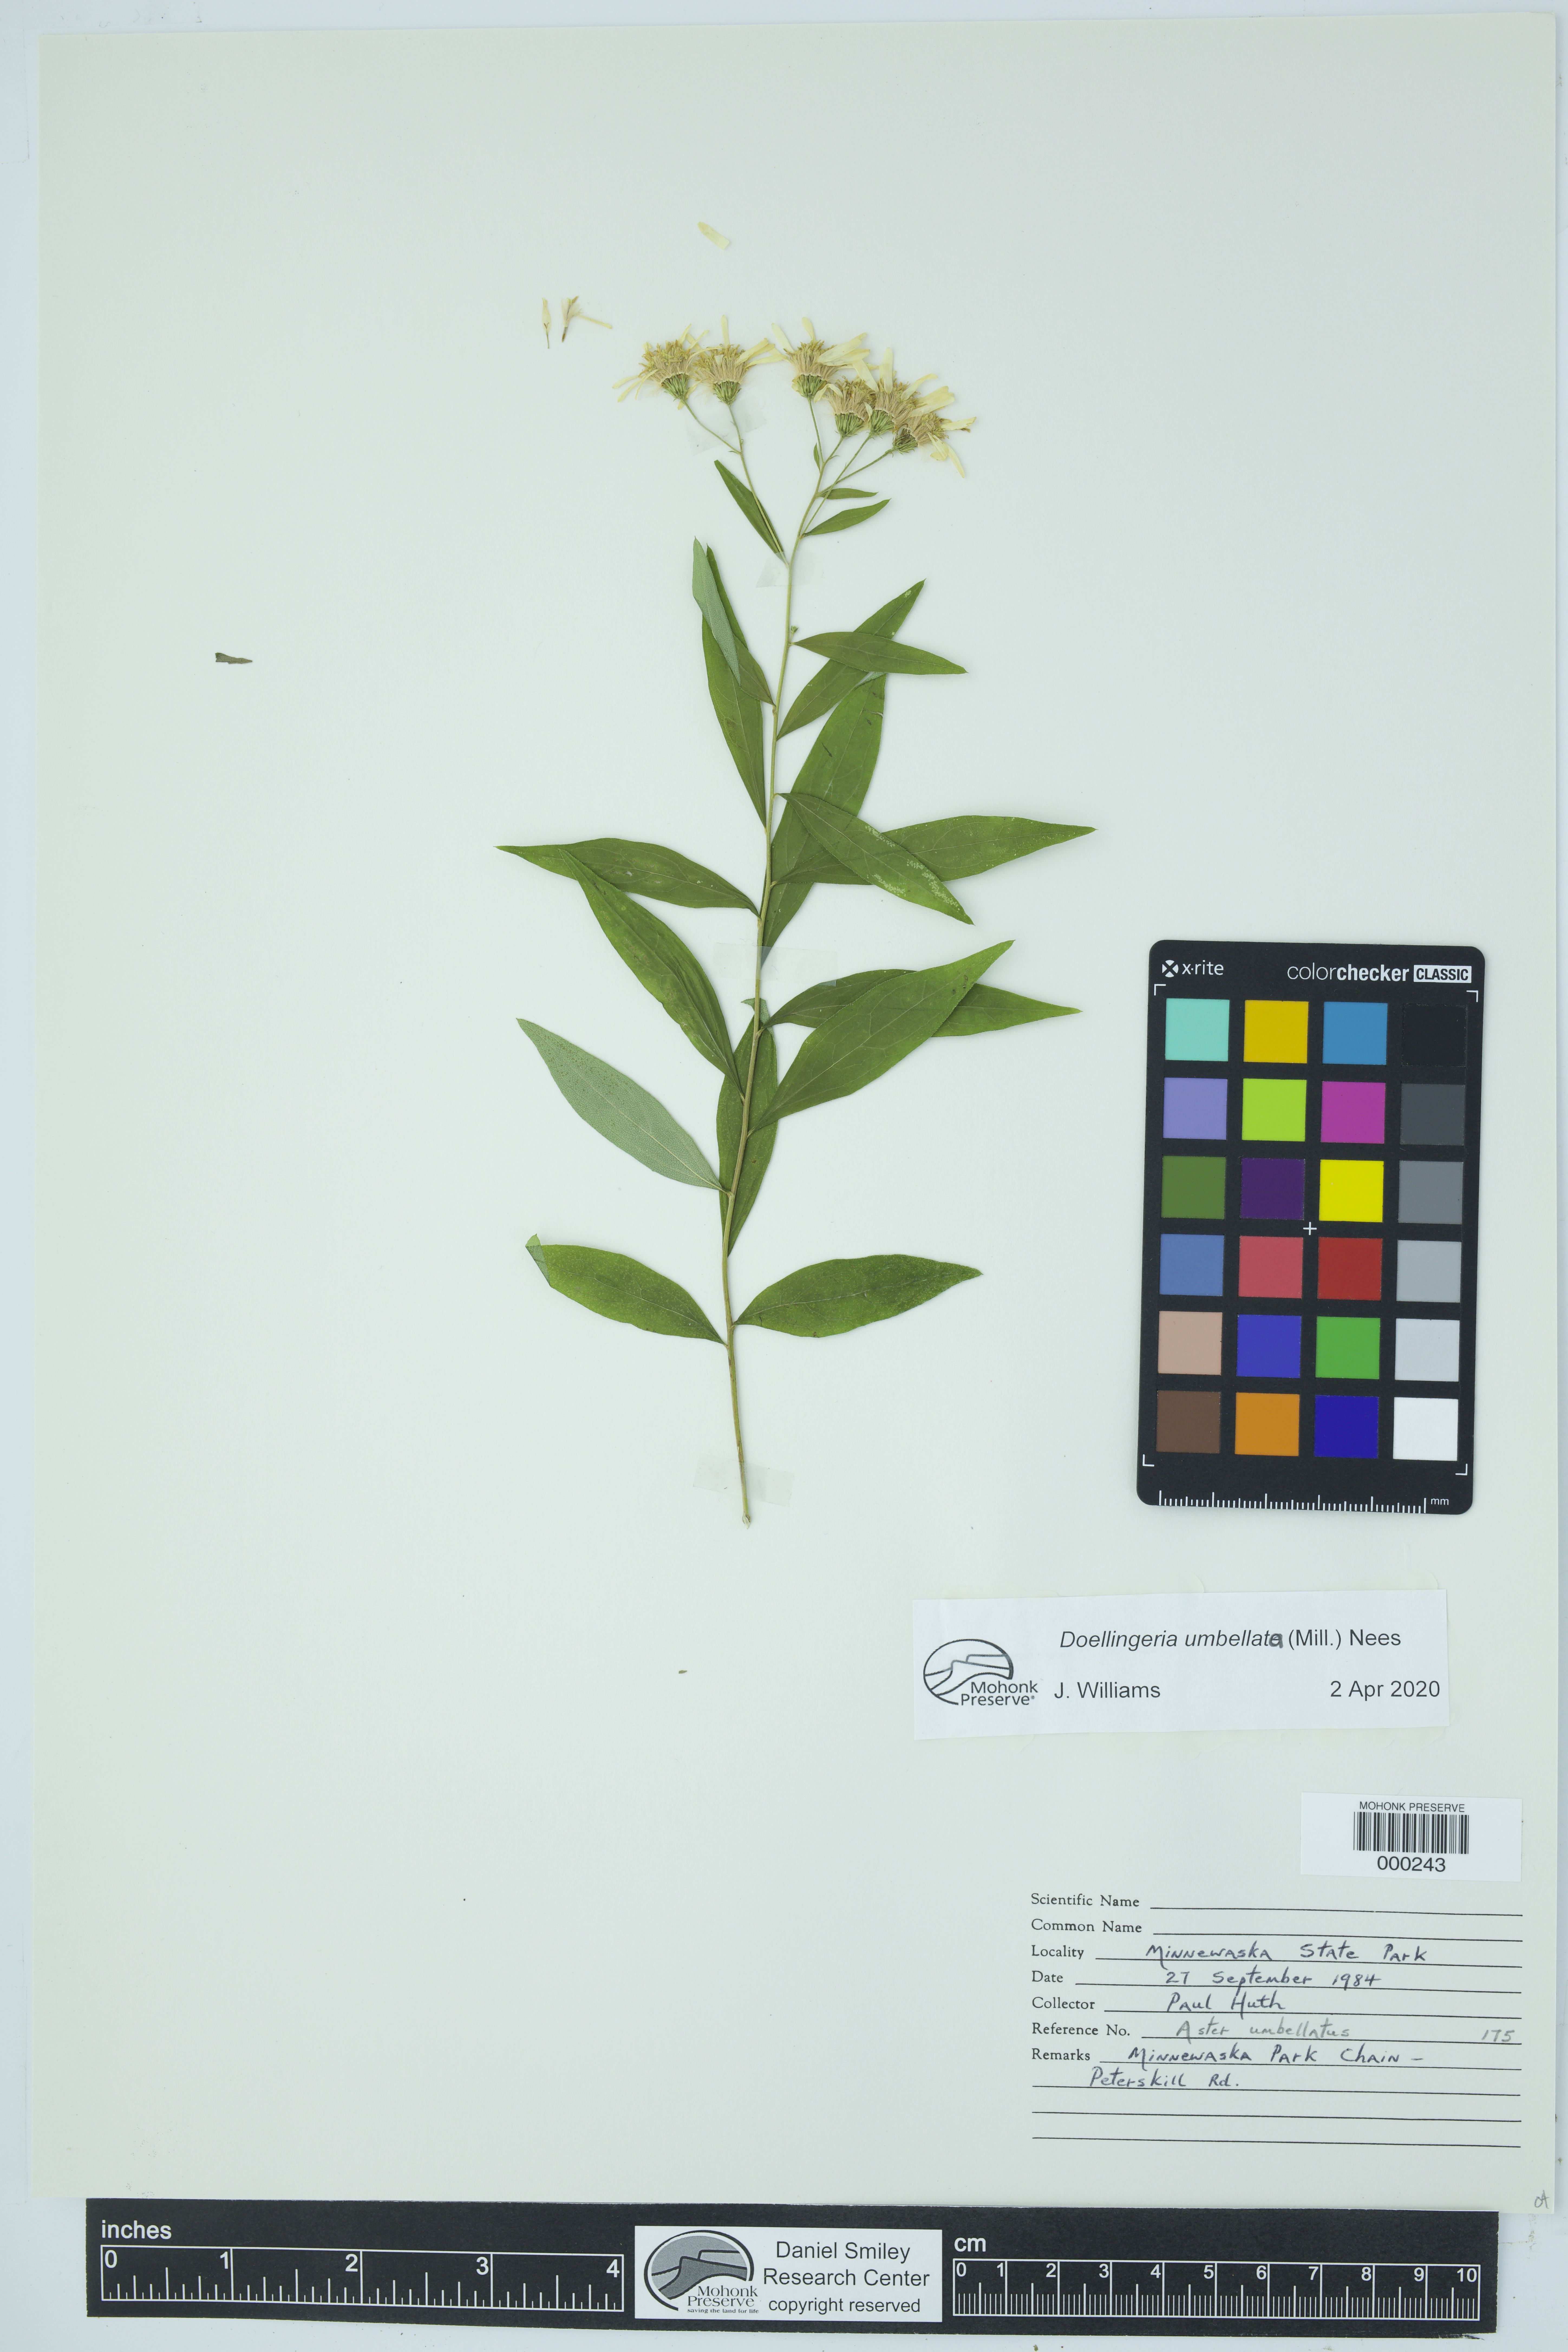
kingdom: Plantae
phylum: Tracheophyta
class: Magnoliopsida
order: Asterales
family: Asteraceae
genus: Doellingeria
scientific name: Doellingeria umbellata
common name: Flat-top white aster
